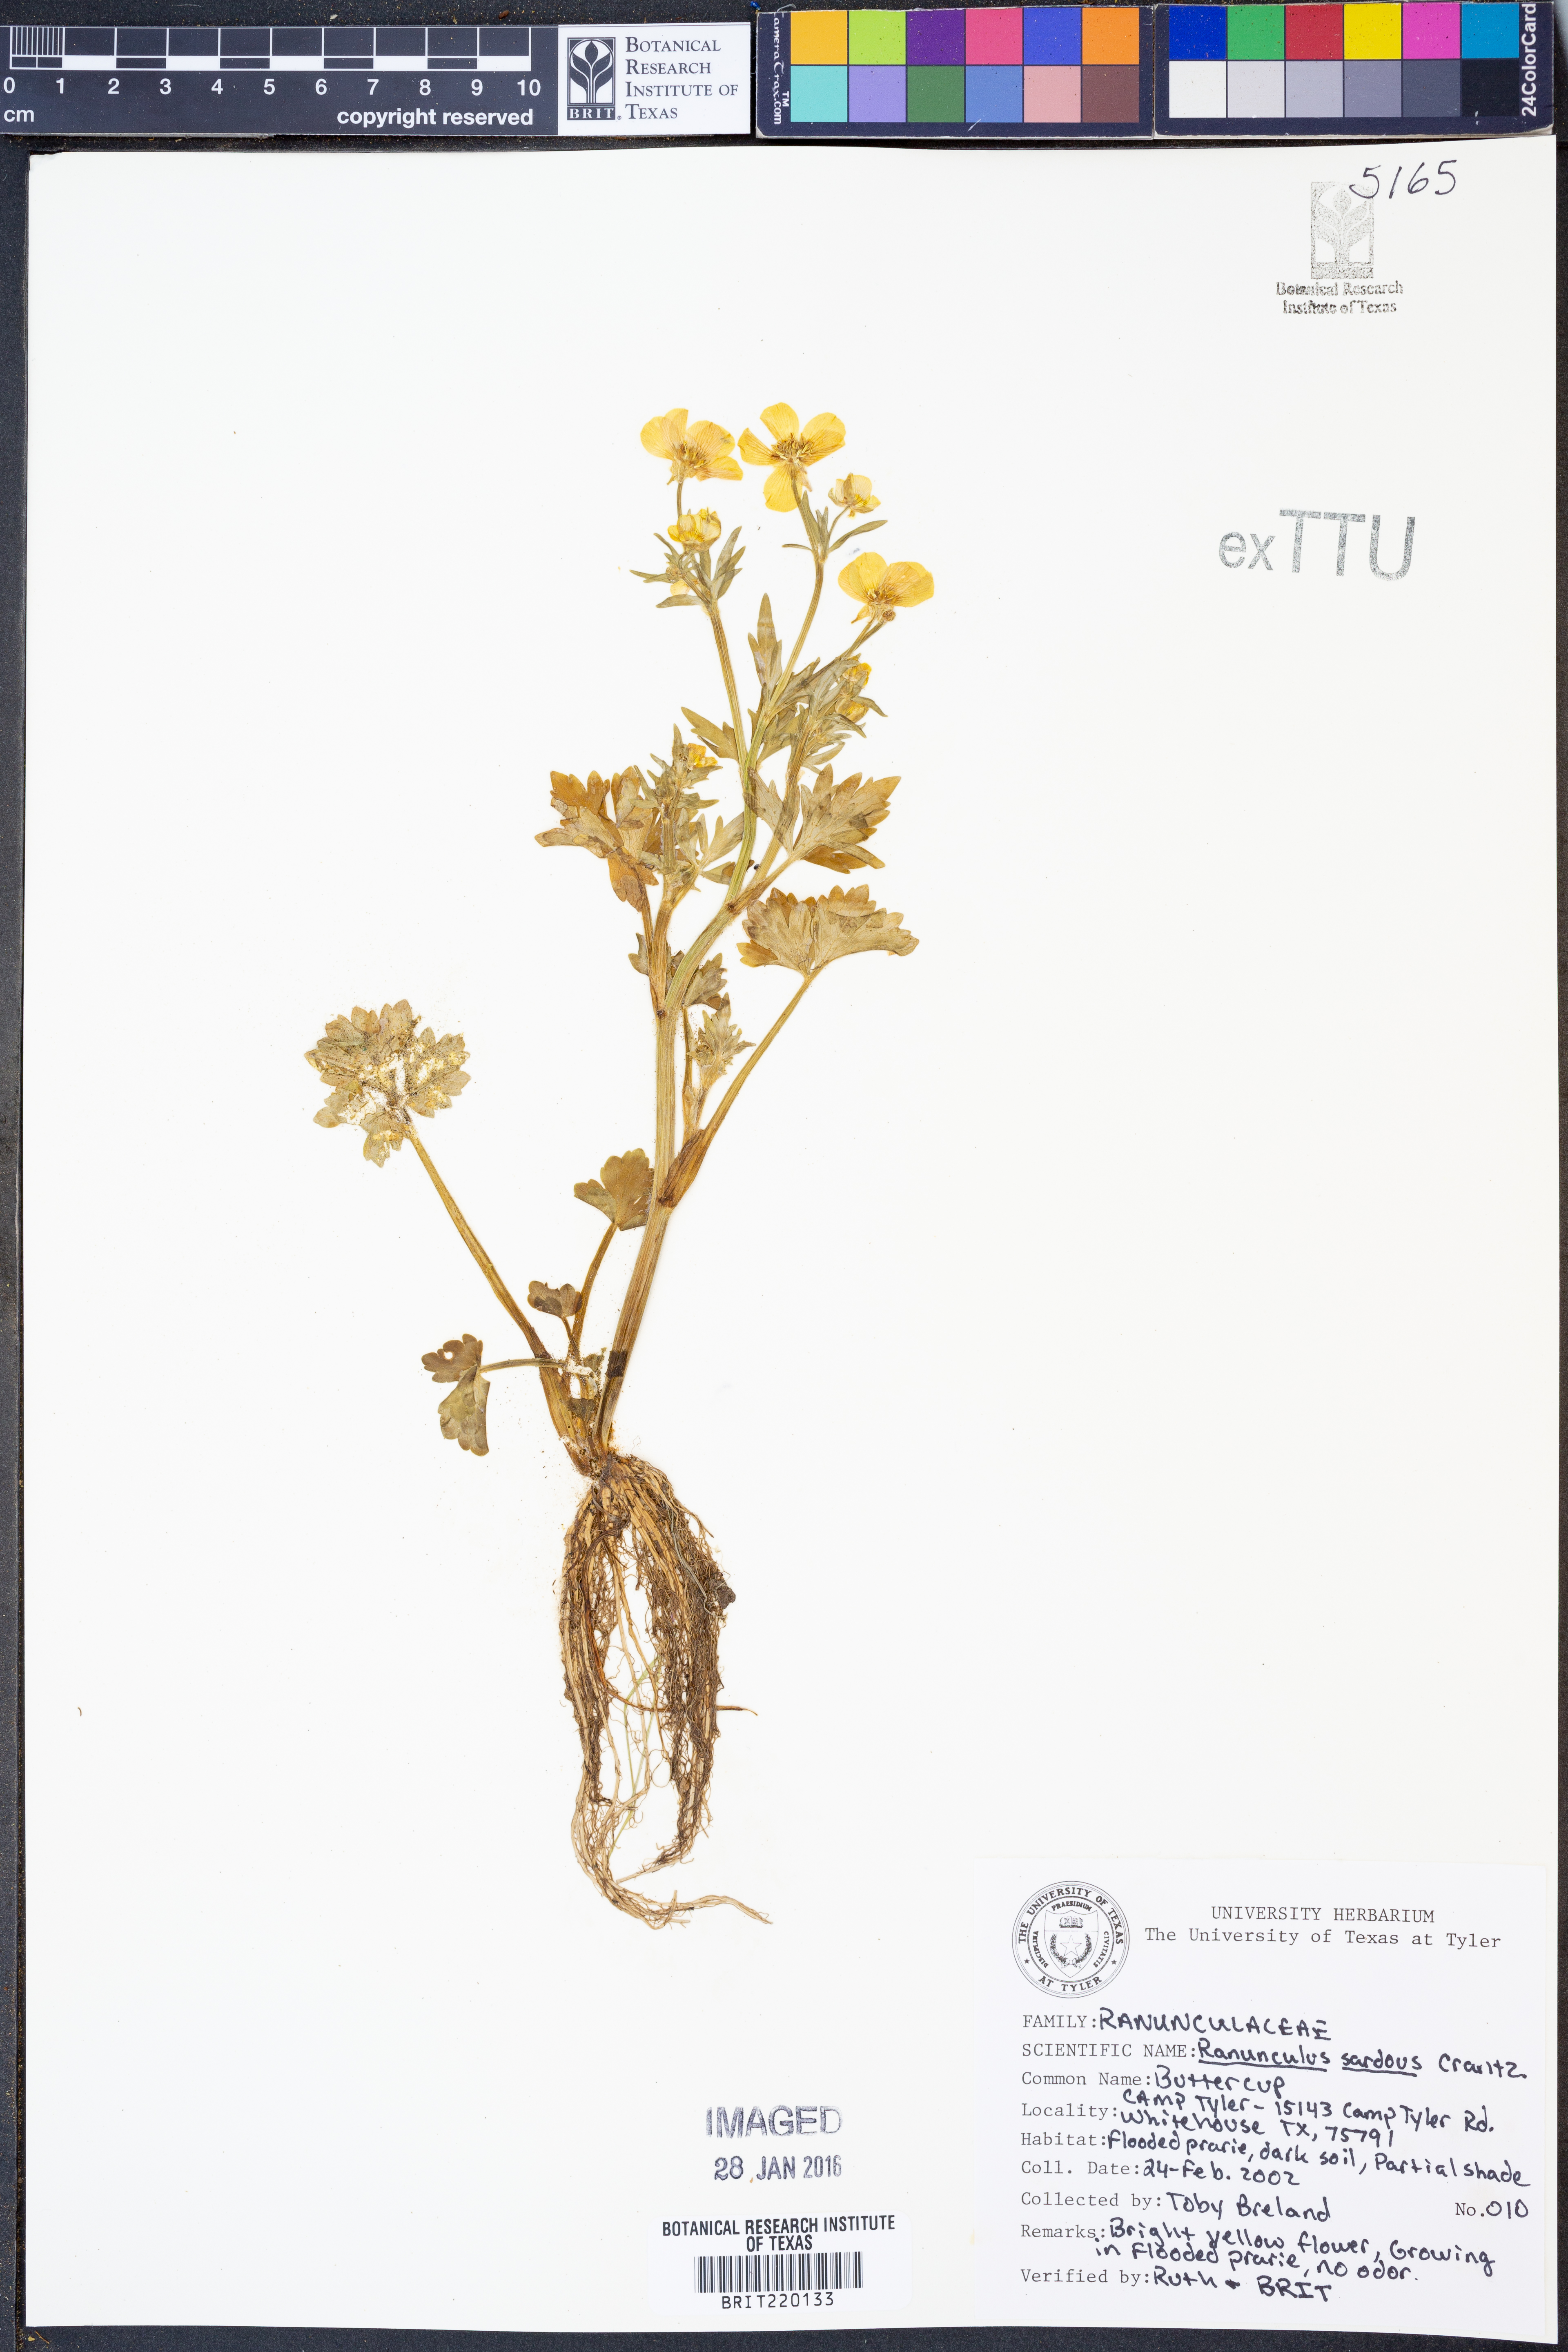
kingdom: Plantae
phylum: Tracheophyta
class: Magnoliopsida
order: Ranunculales
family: Ranunculaceae
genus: Ranunculus
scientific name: Ranunculus sardous
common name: Hairy buttercup
